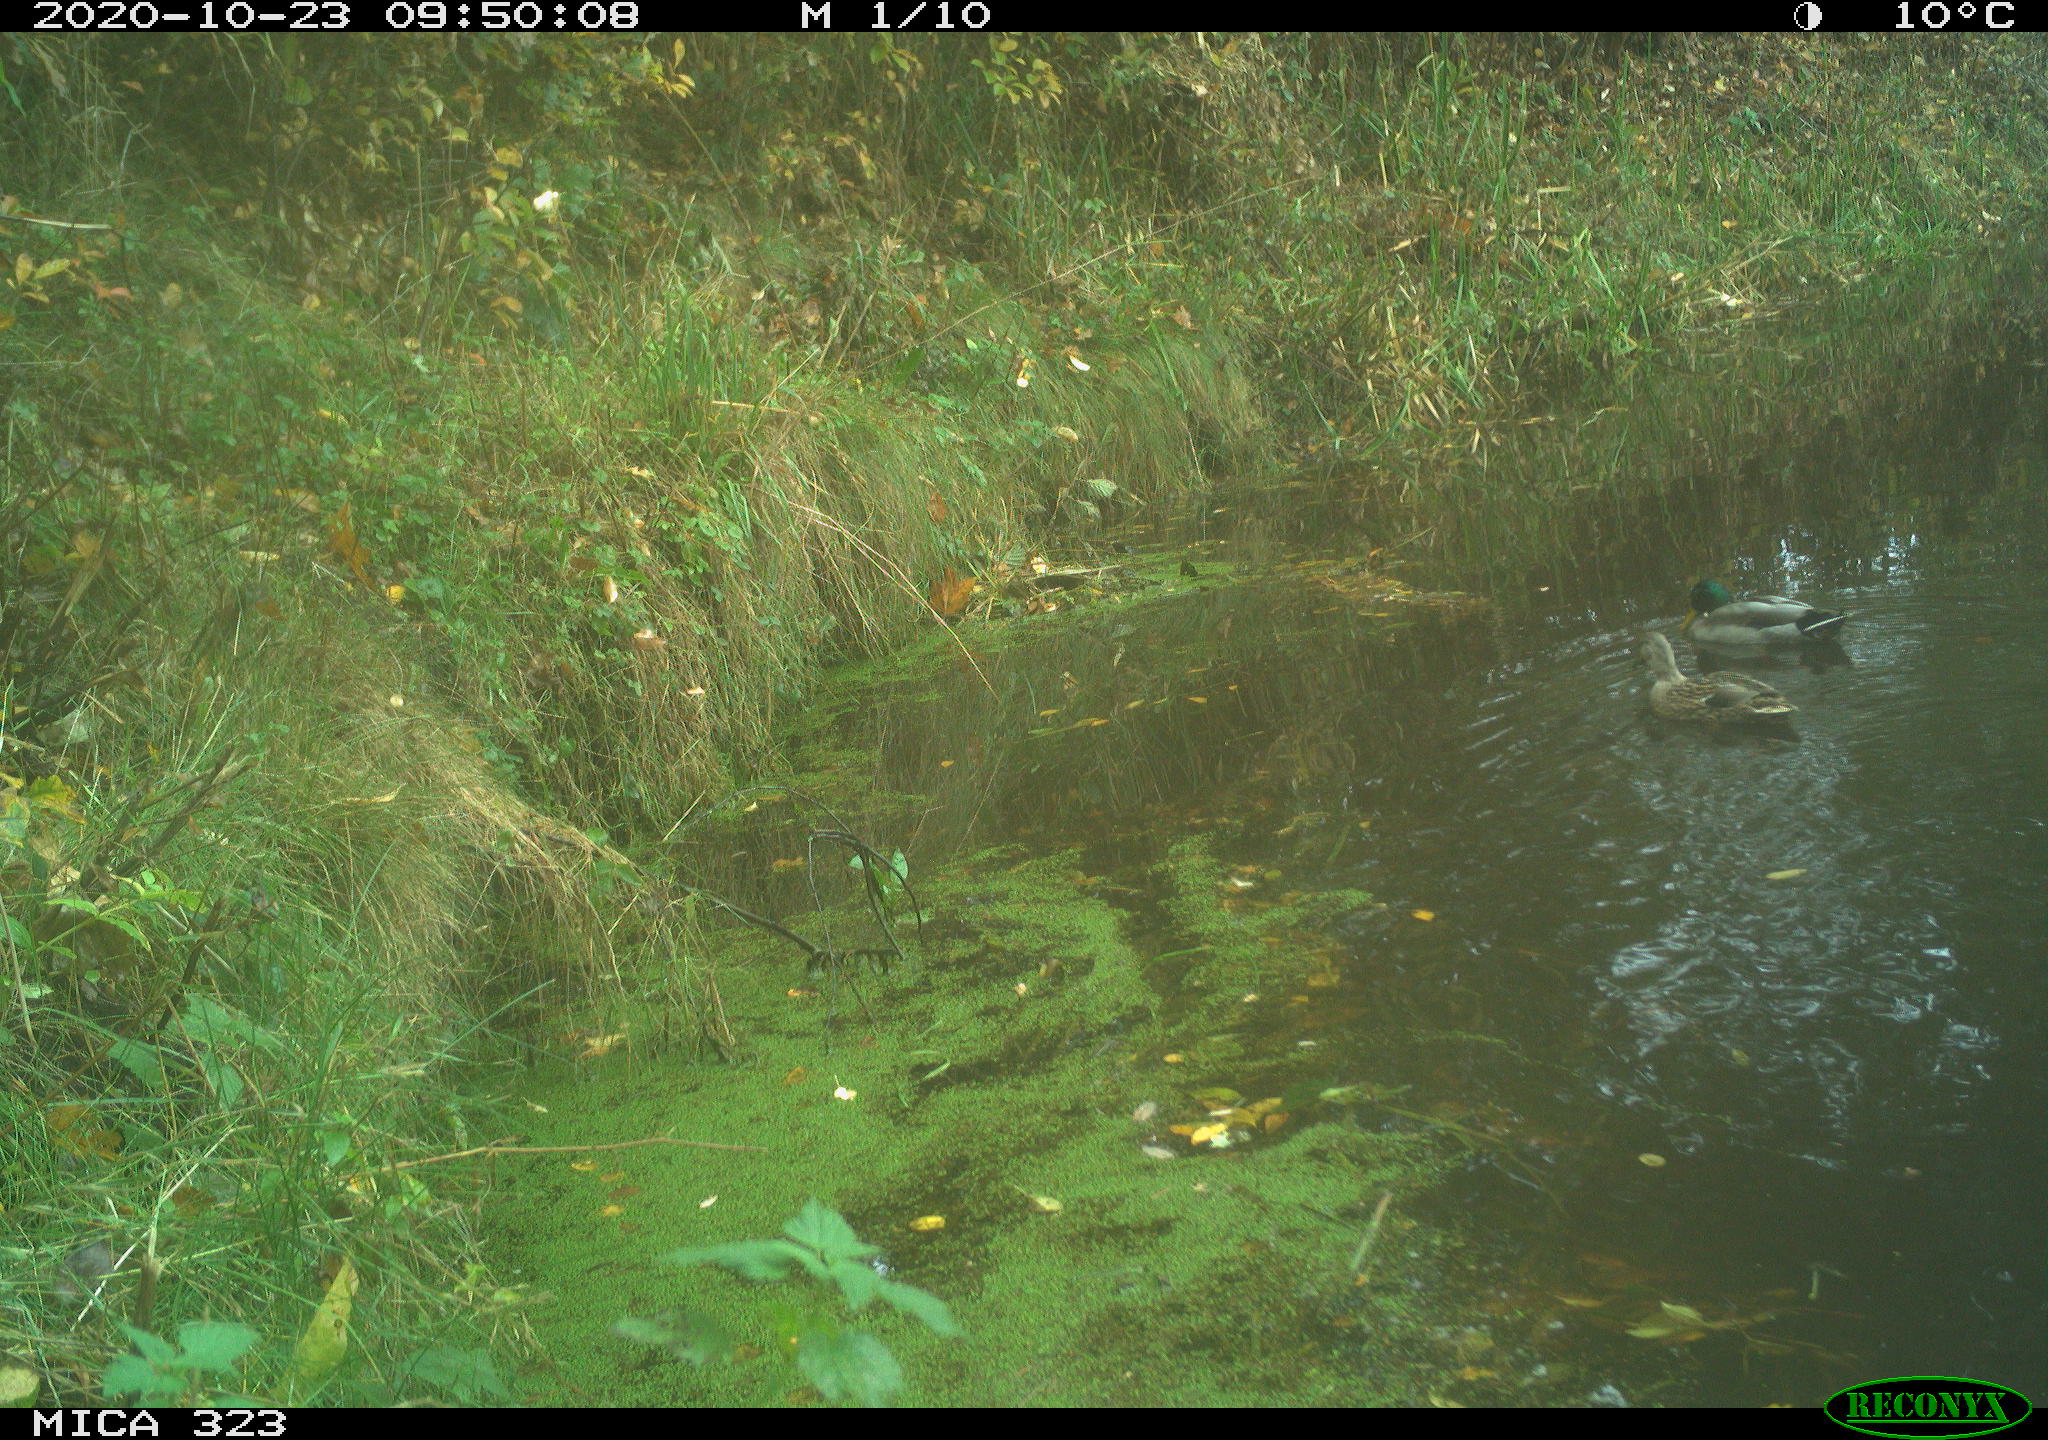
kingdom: Animalia
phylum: Chordata
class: Aves
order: Anseriformes
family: Anatidae
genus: Anas
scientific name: Anas platyrhynchos
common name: Mallard
